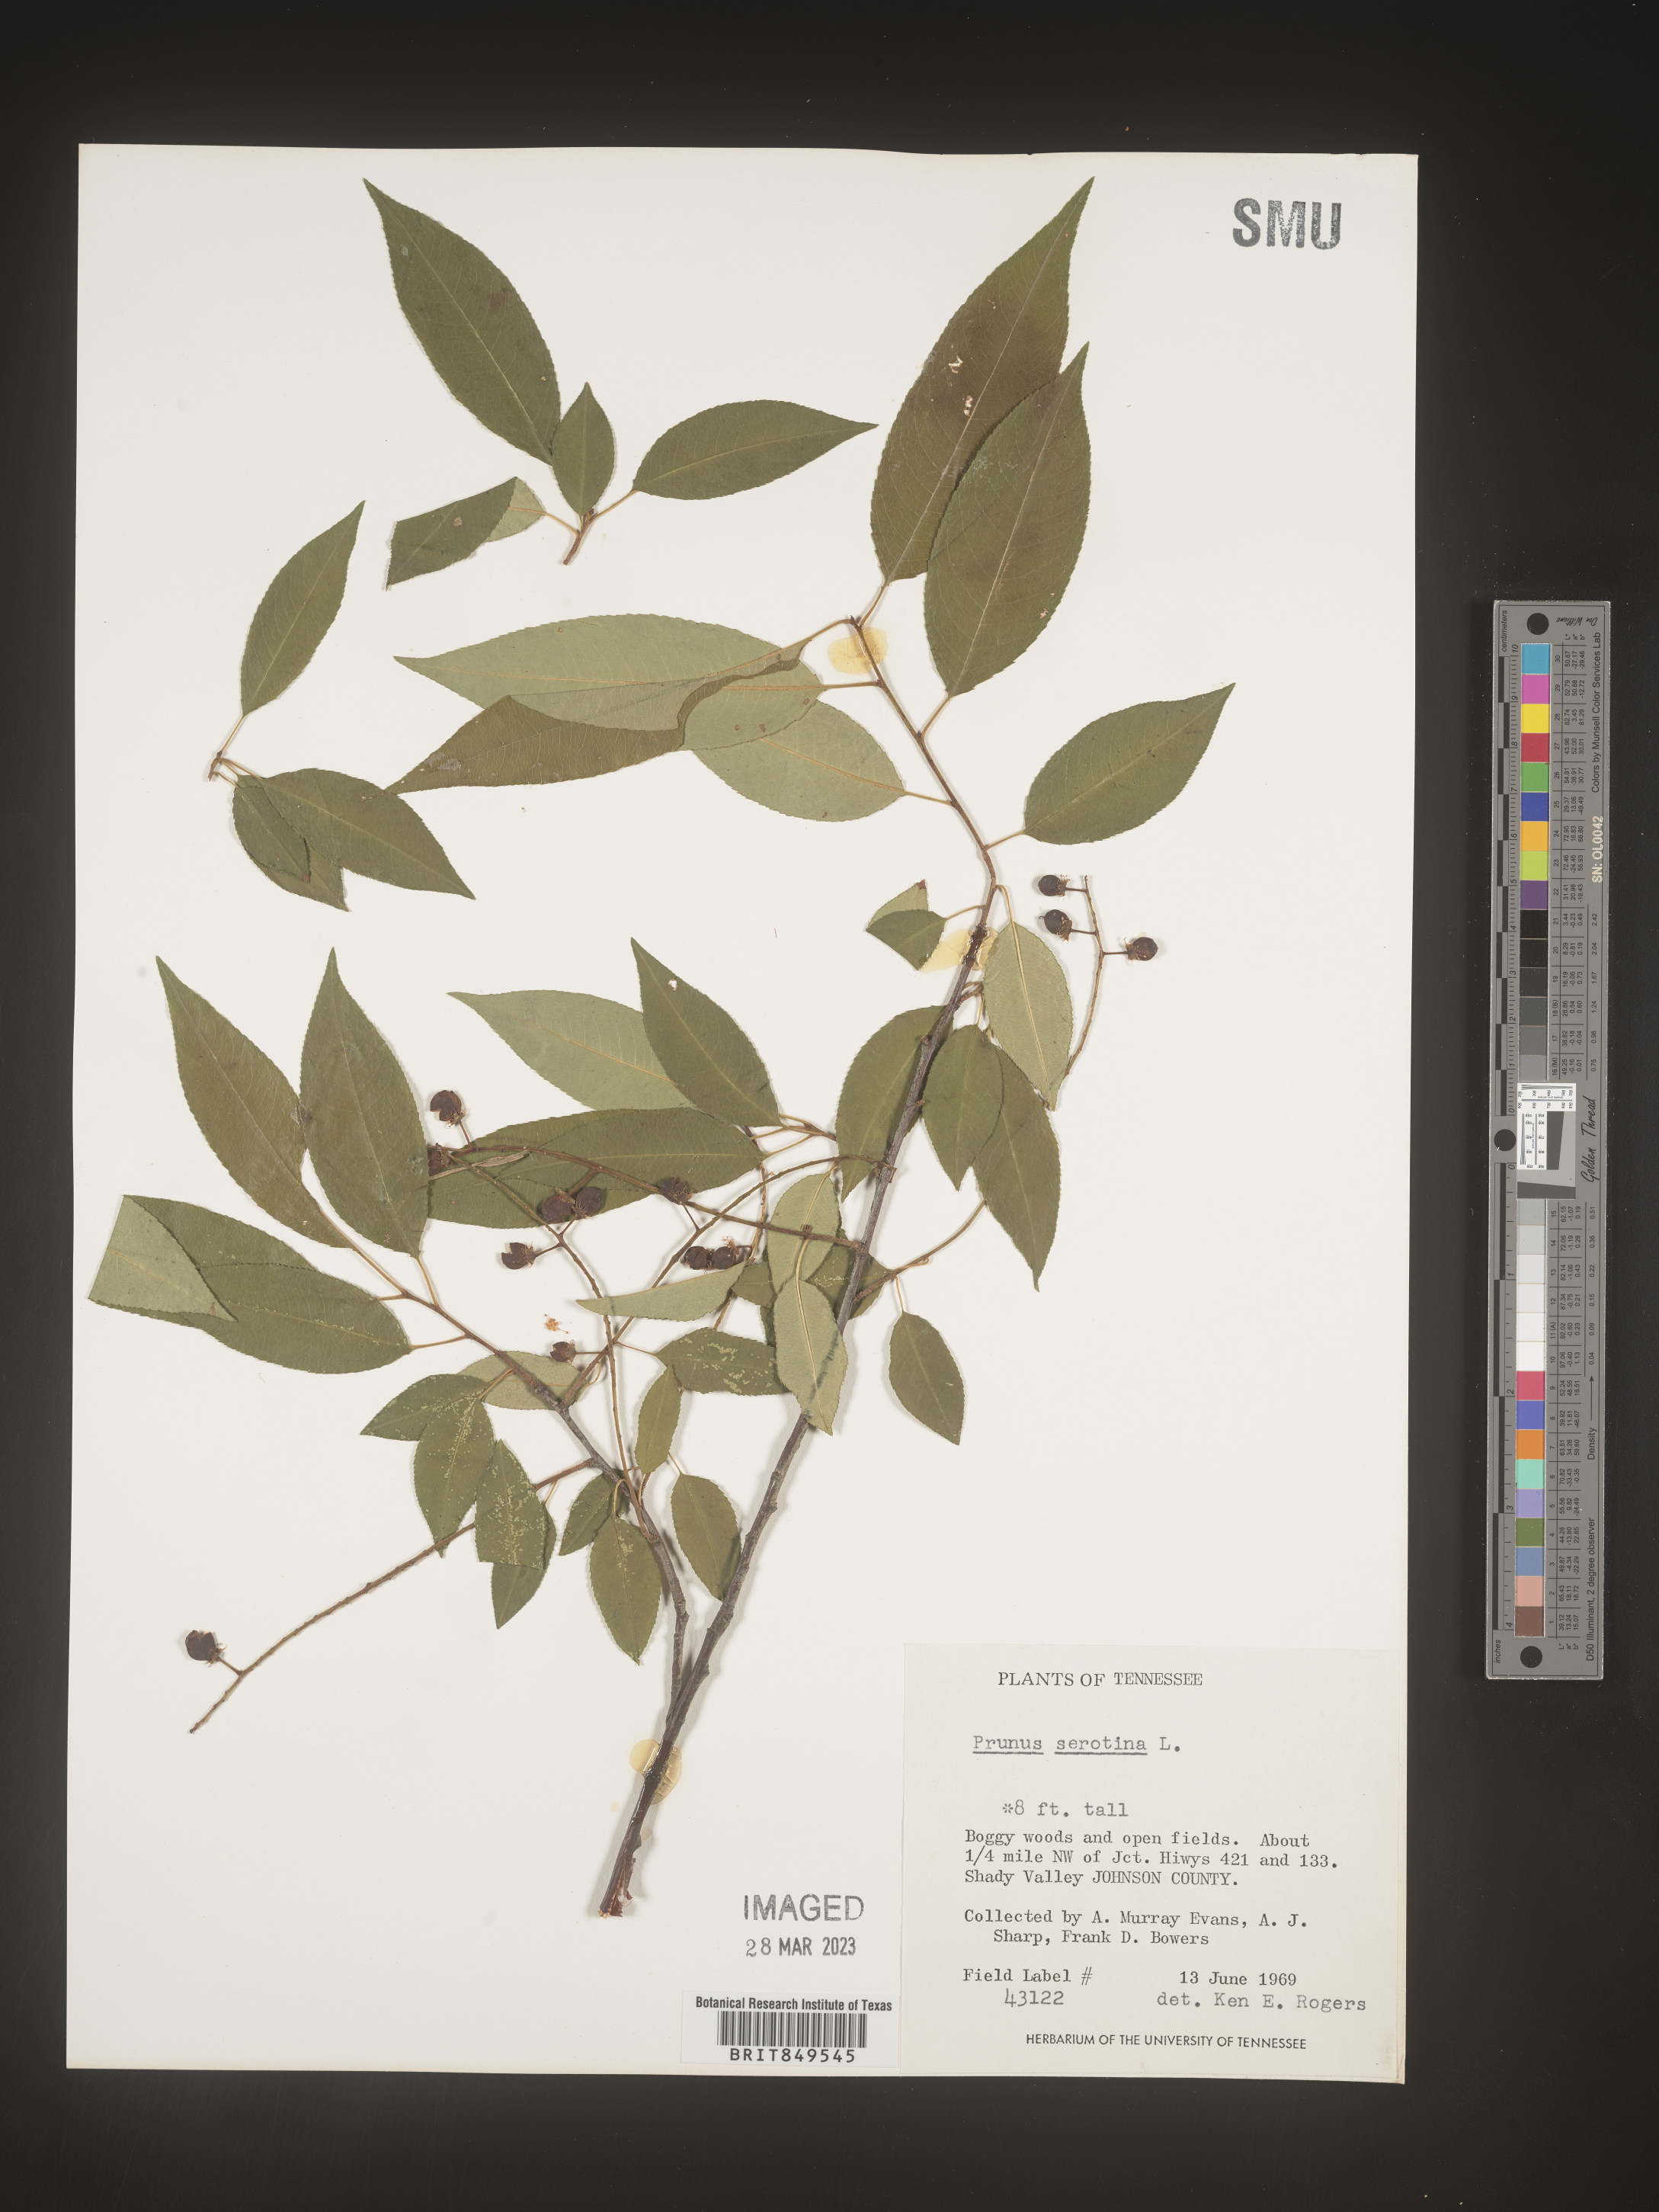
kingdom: Plantae
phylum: Tracheophyta
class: Magnoliopsida
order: Rosales
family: Rosaceae
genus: Prunus
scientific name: Prunus serotina
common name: Black cherry
